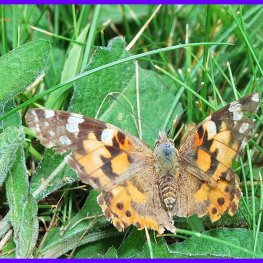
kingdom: Animalia
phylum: Arthropoda
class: Insecta
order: Lepidoptera
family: Nymphalidae
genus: Vanessa
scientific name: Vanessa cardui
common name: Painted Lady
